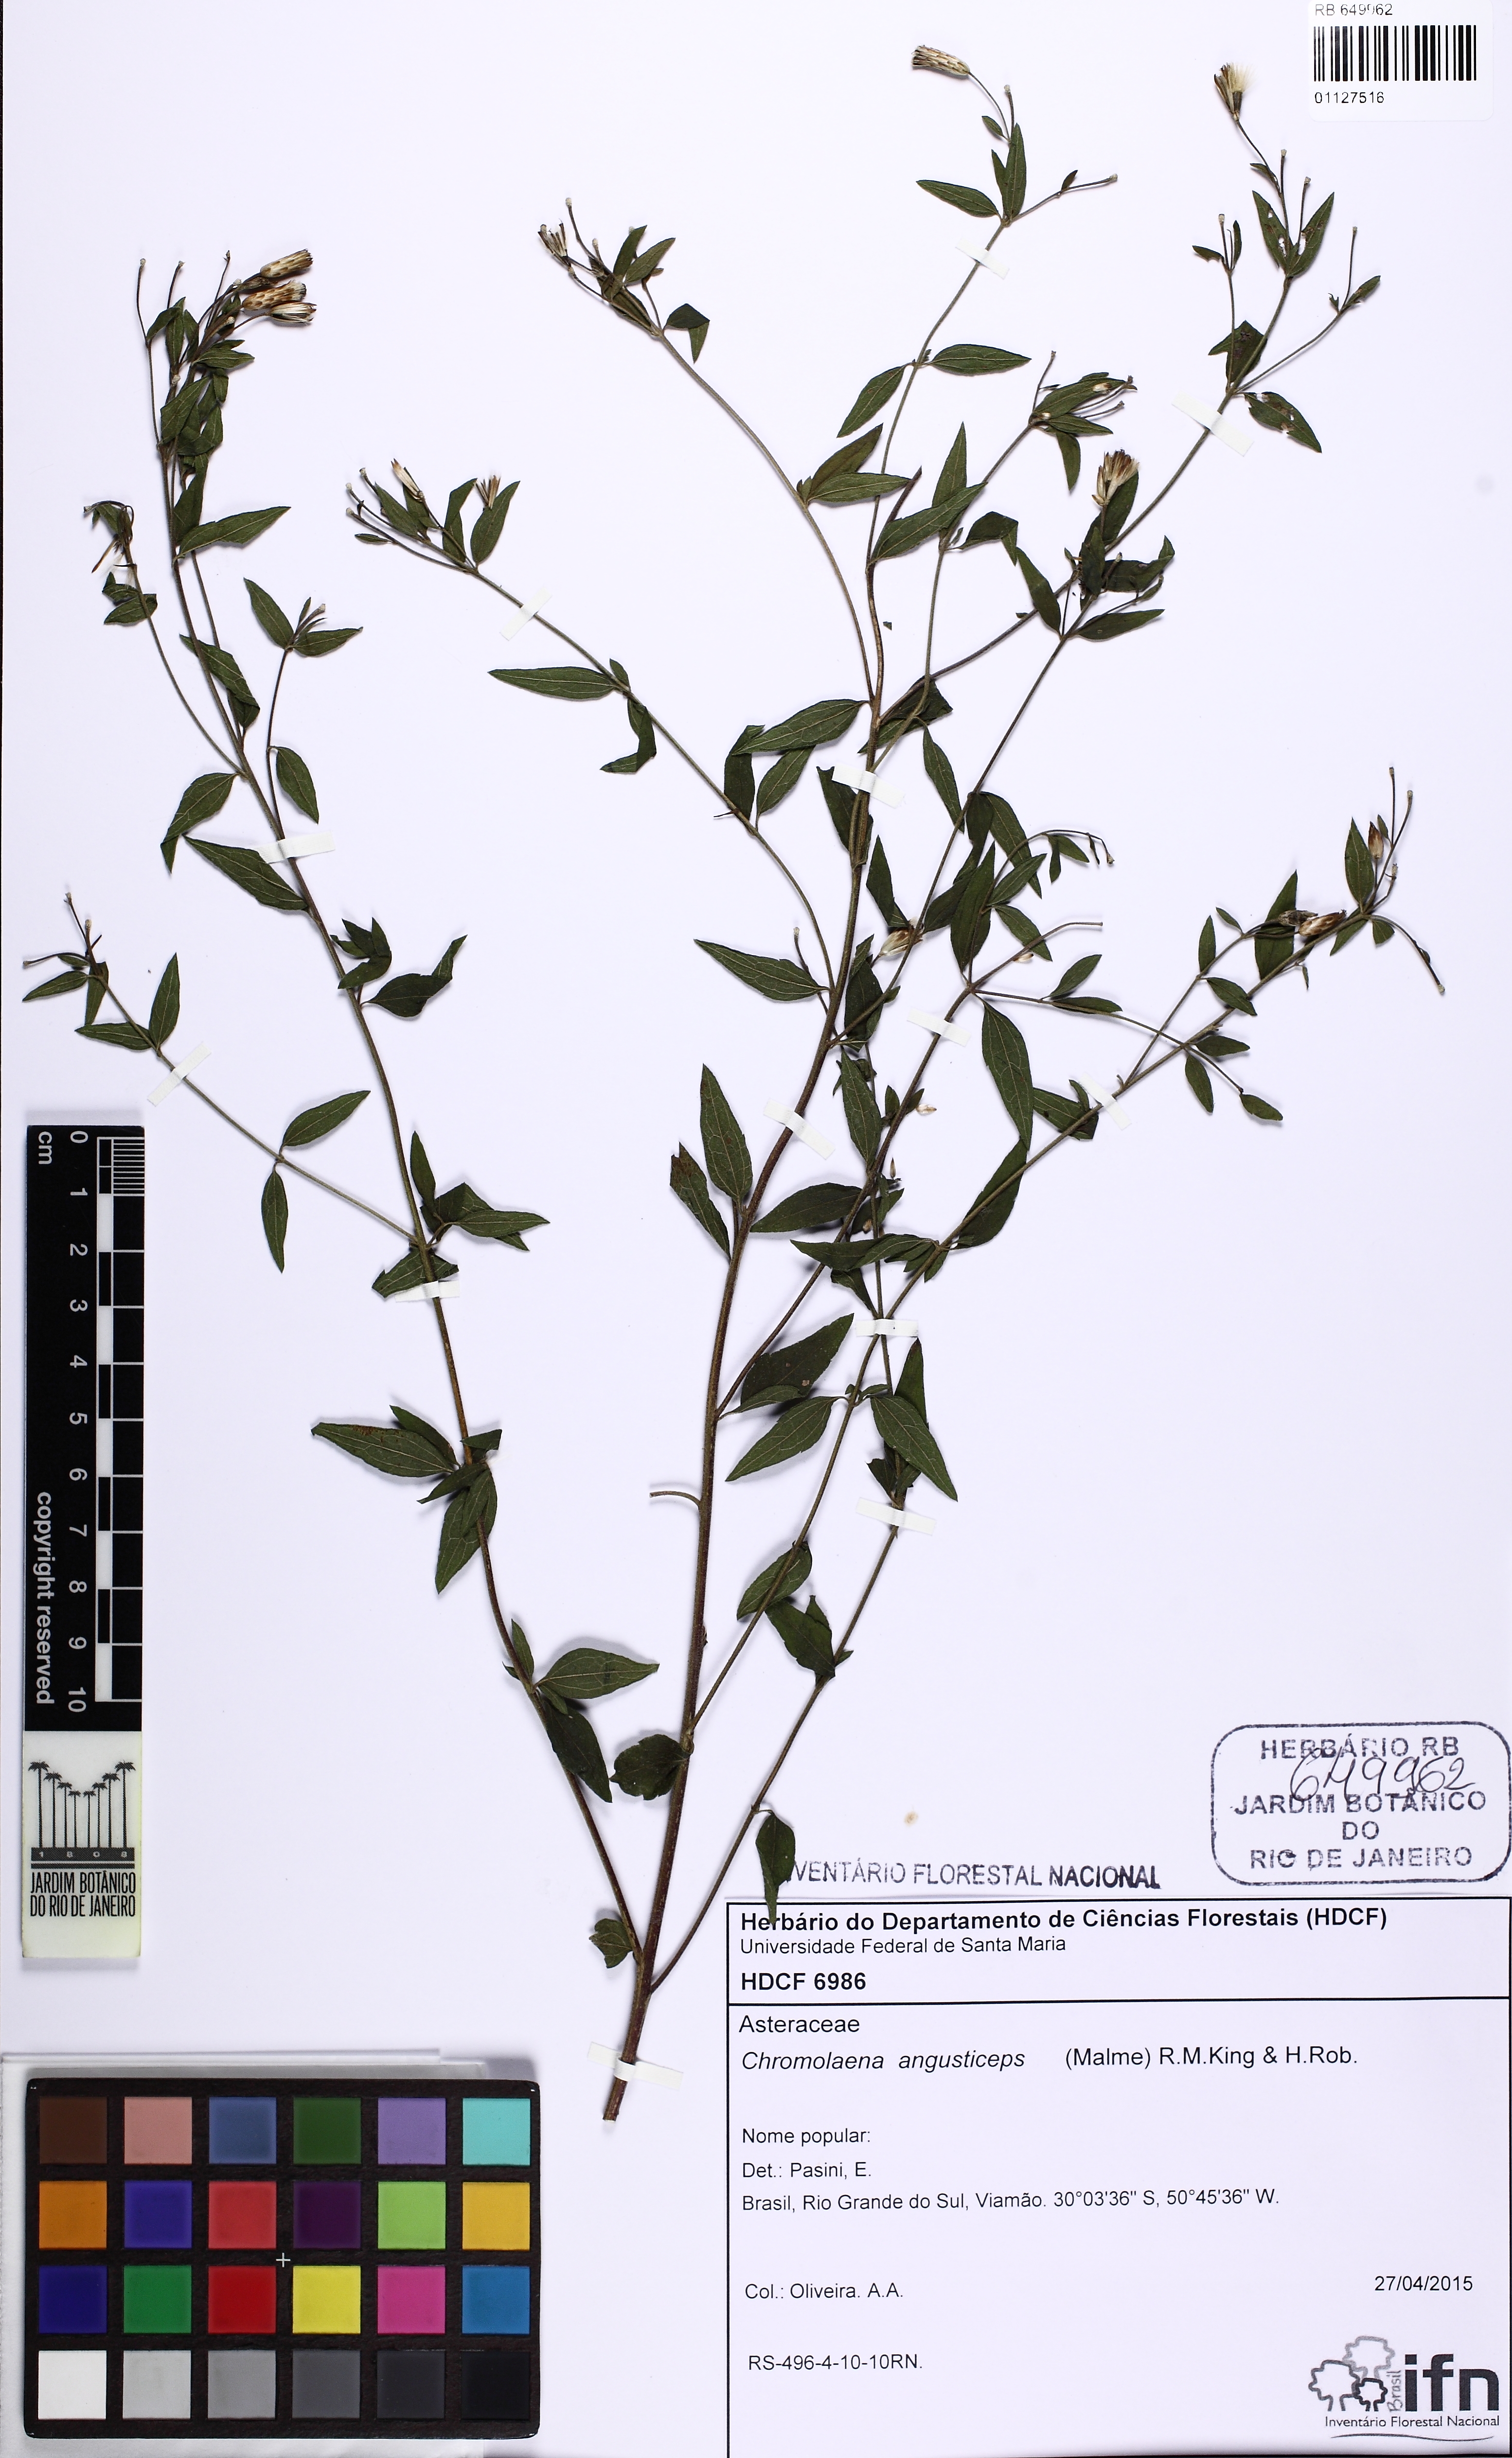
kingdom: Plantae
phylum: Tracheophyta
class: Magnoliopsida
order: Asterales
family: Asteraceae
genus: Chromolaena
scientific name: Chromolaena pedunculosa
